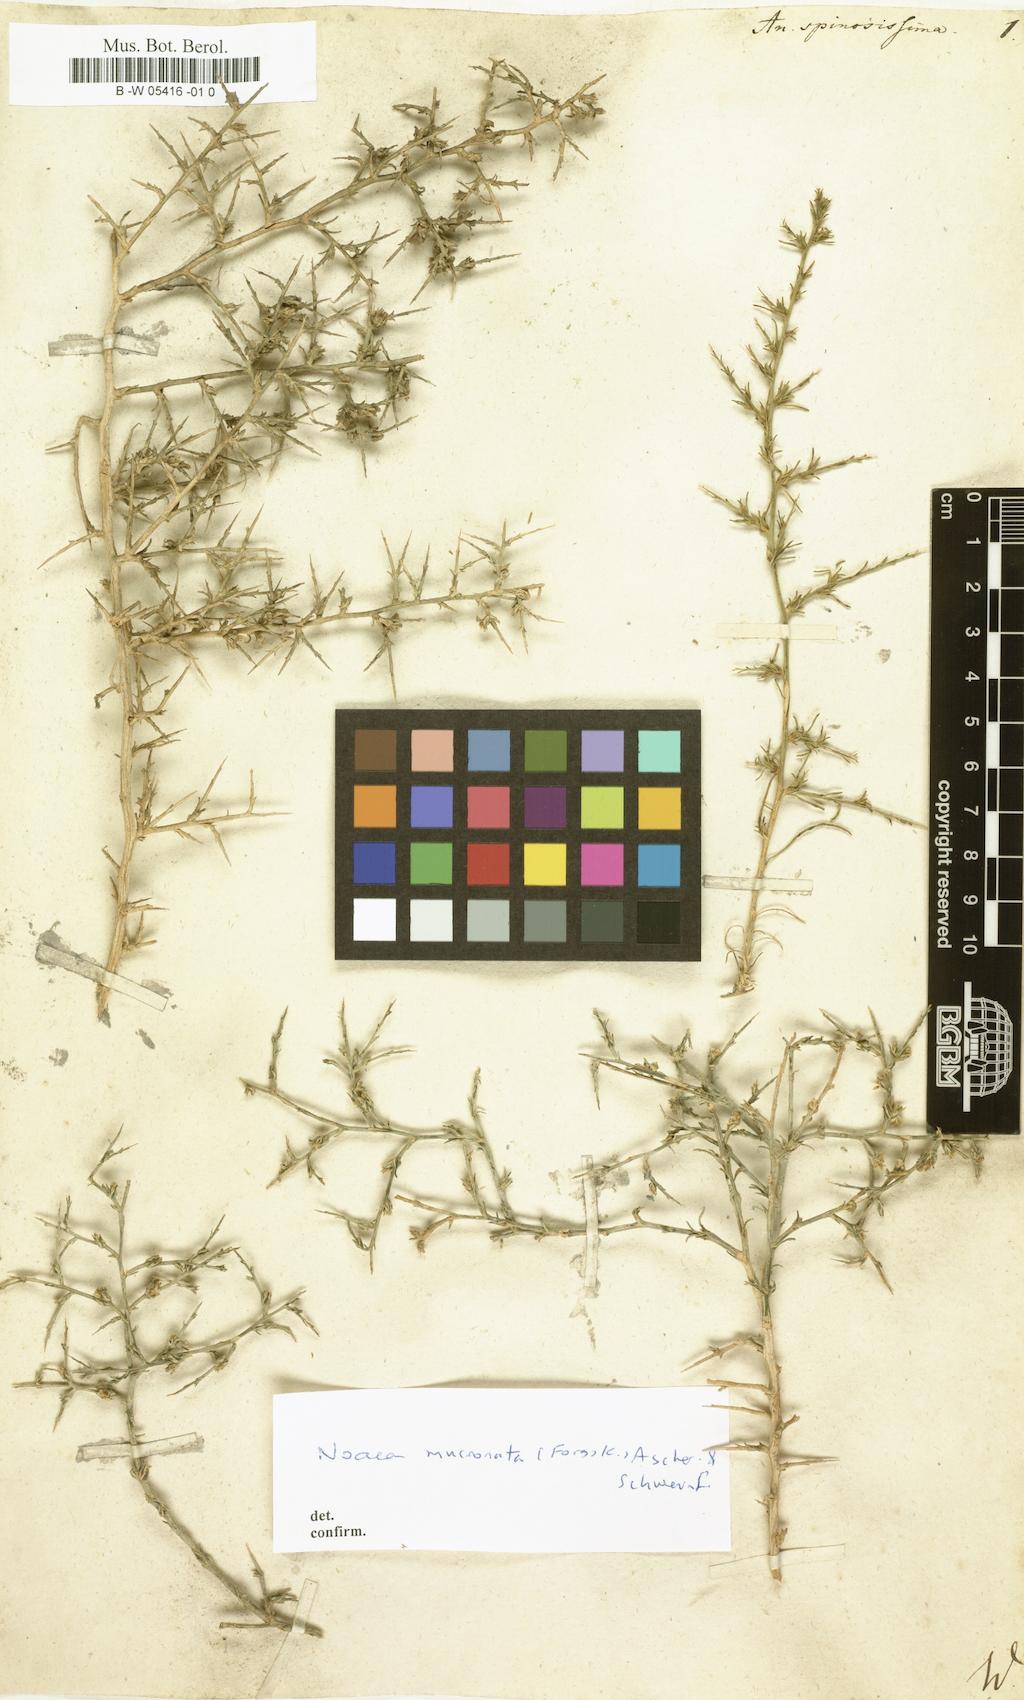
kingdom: Plantae
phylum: Tracheophyta
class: Magnoliopsida
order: Caryophyllales
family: Amaranthaceae
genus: Noaea
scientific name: Noaea mucronata
